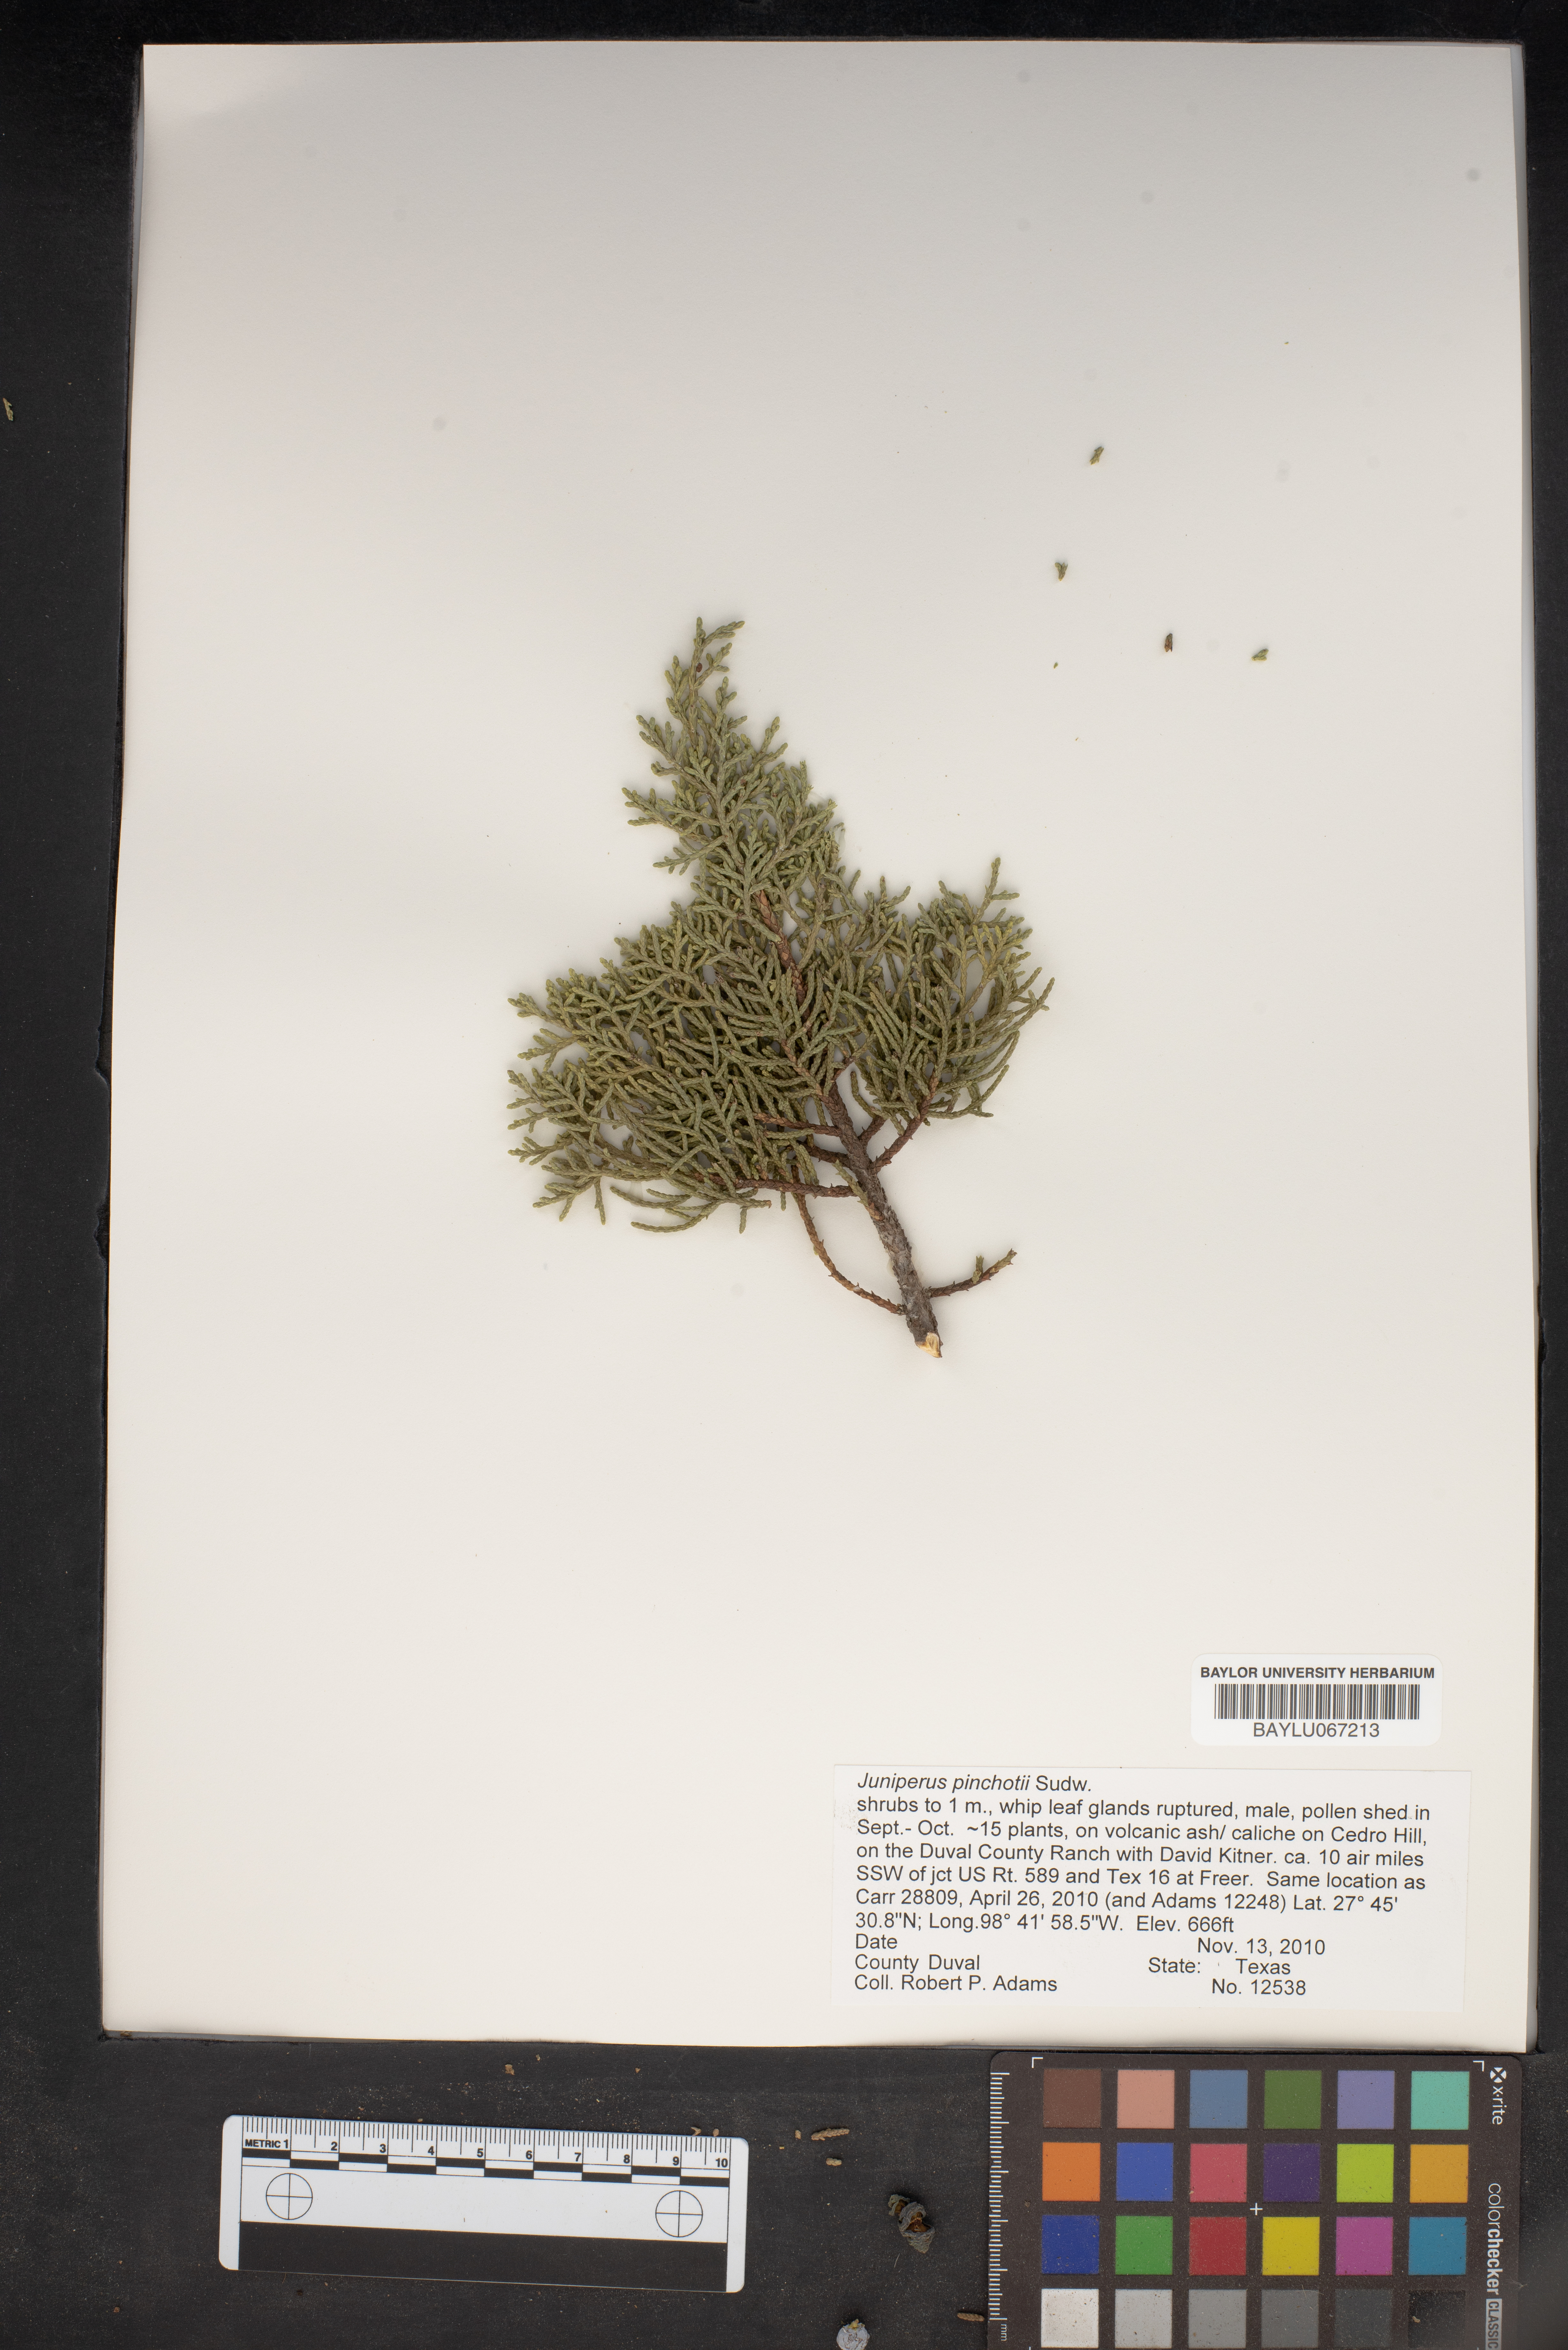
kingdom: Plantae
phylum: Tracheophyta
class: Pinopsida
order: Pinales
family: Cupressaceae
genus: Juniperus
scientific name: Juniperus pinchotii
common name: Pinchot juniper
